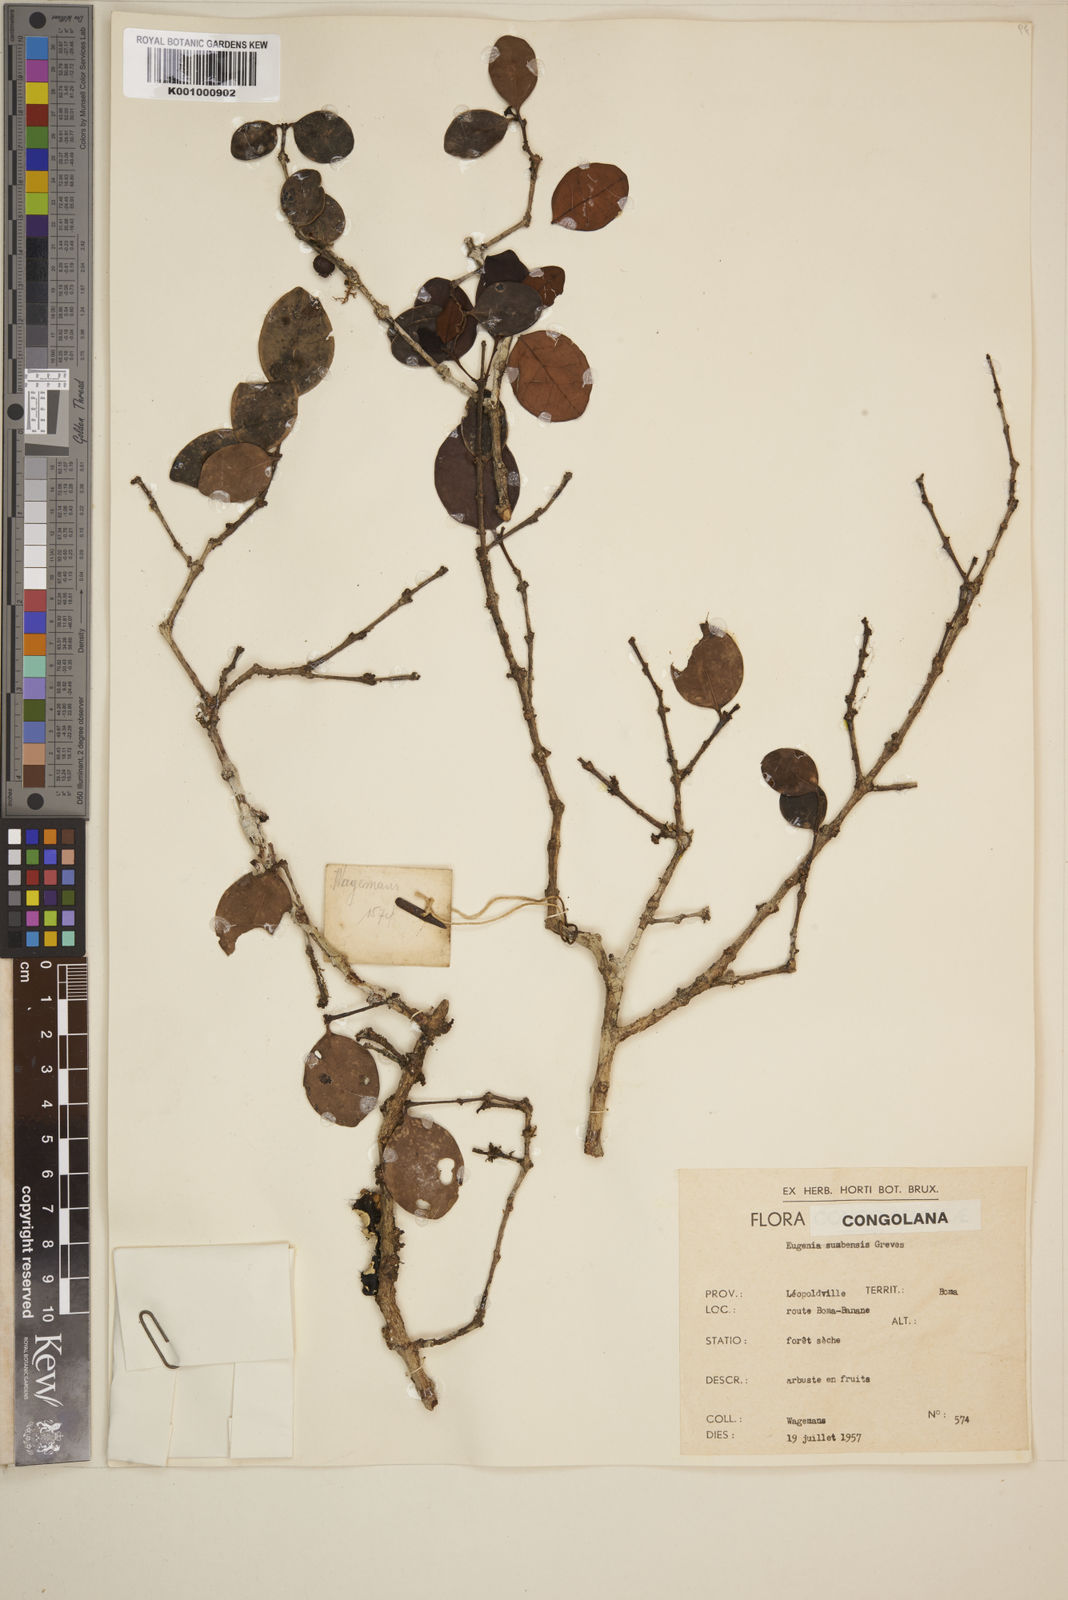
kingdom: Plantae
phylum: Tracheophyta
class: Magnoliopsida
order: Myrtales
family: Myrtaceae
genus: Eugenia
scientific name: Eugenia sumbensis
